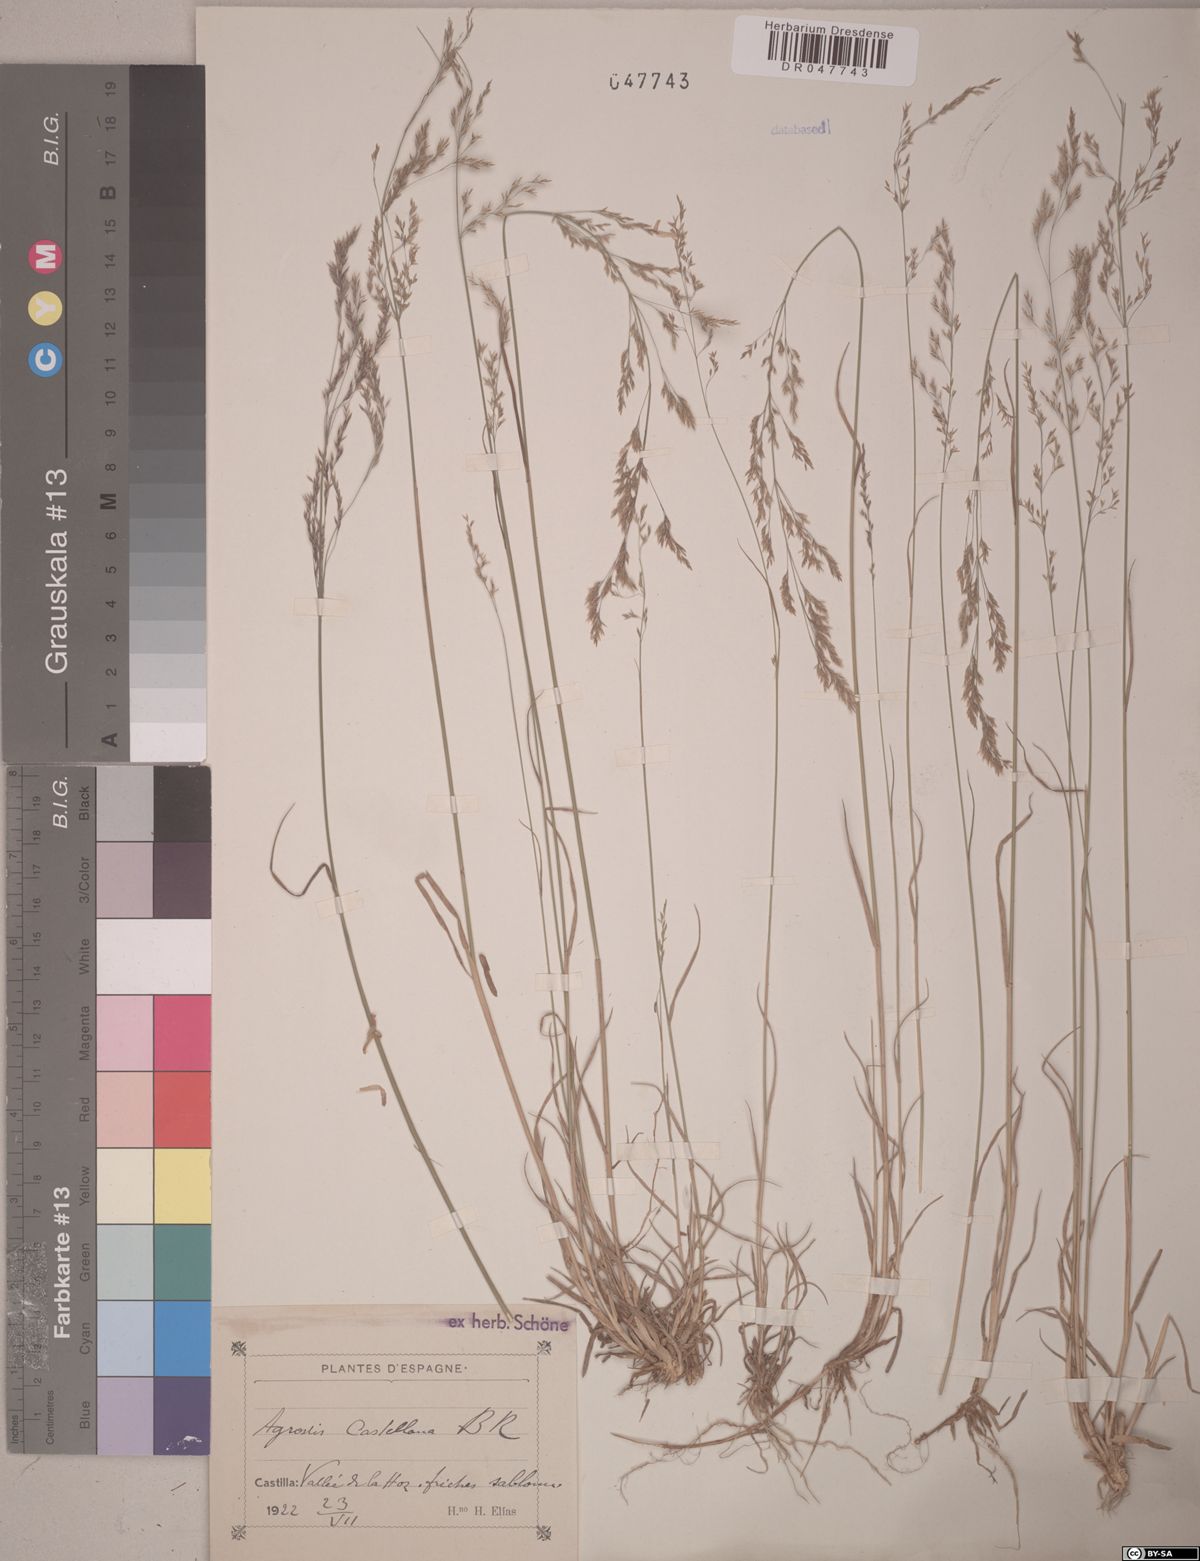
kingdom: Plantae
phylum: Tracheophyta
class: Liliopsida
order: Poales
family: Poaceae
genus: Agrostis
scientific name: Agrostis castellana
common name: Highland bent
